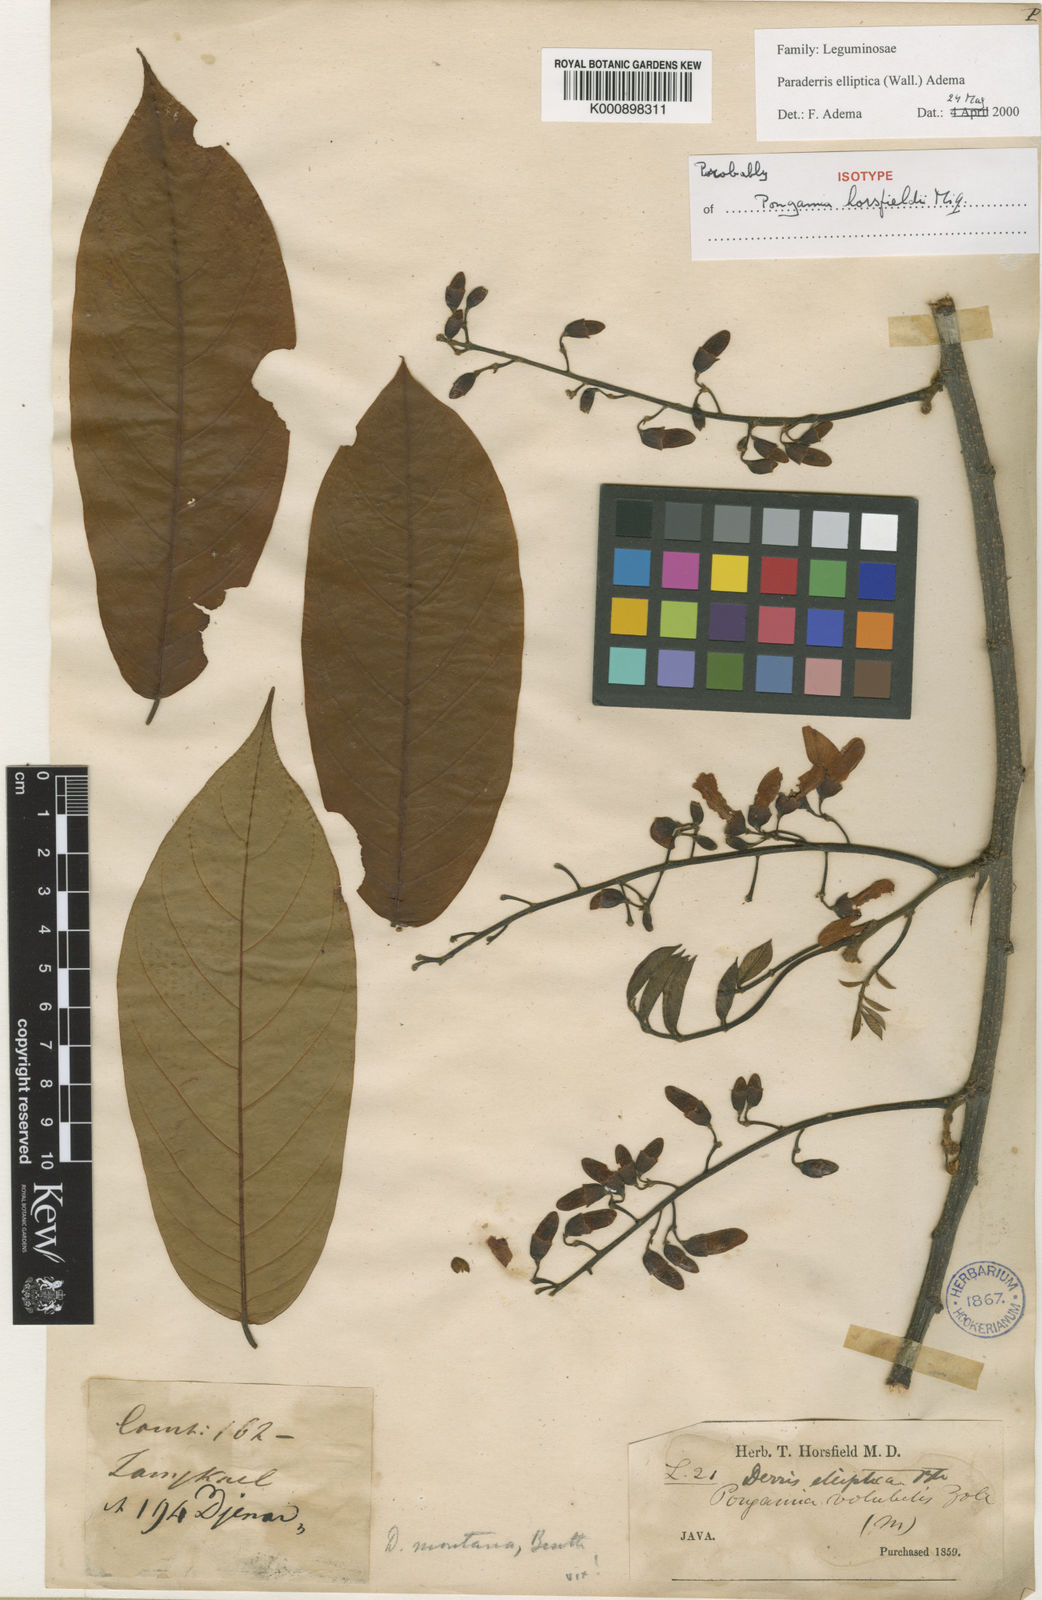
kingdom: Plantae
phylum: Tracheophyta
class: Magnoliopsida
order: Fabales
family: Fabaceae
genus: Derris
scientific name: Derris elliptica
